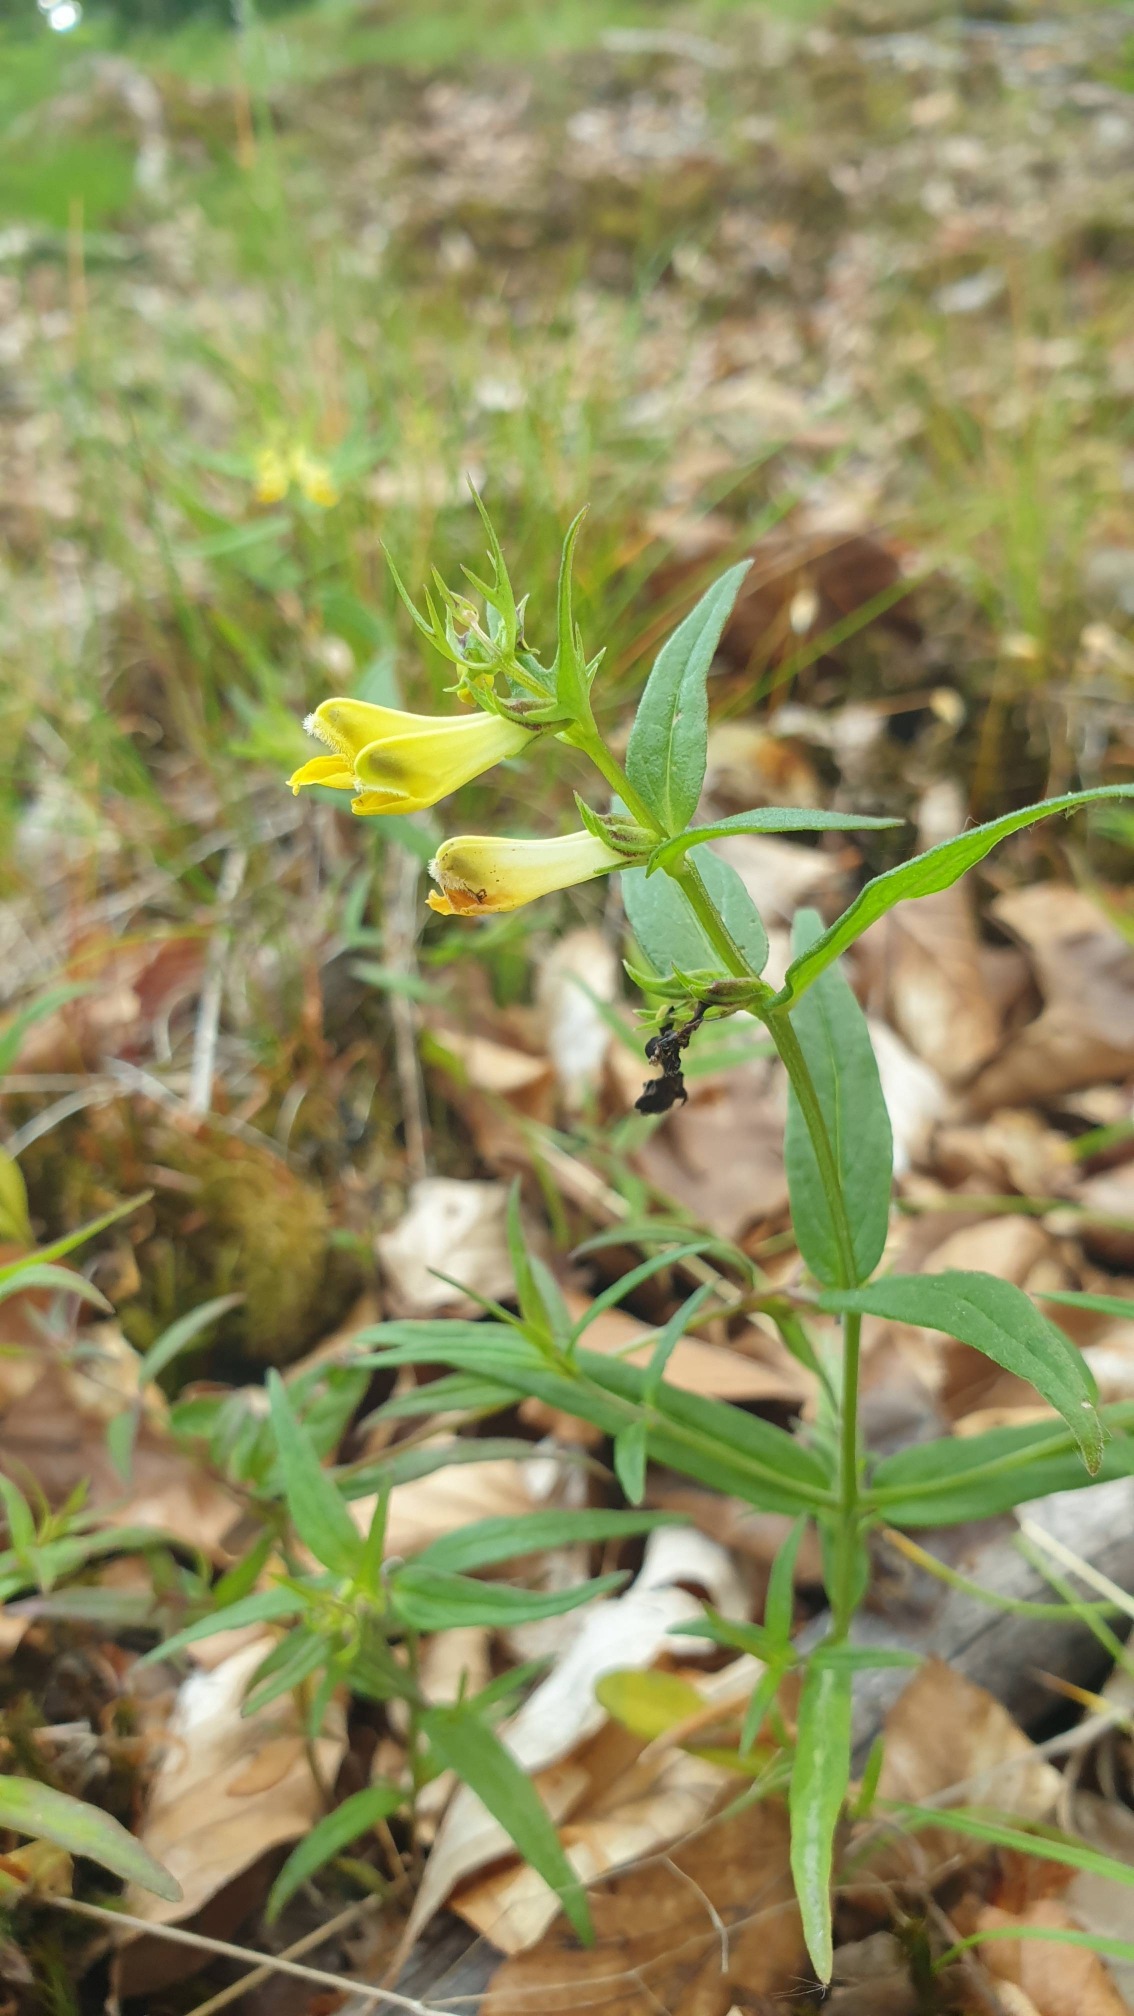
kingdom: Plantae
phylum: Tracheophyta
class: Magnoliopsida
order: Lamiales
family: Orobanchaceae
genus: Melampyrum
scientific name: Melampyrum pratense
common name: Almindelig kohvede
